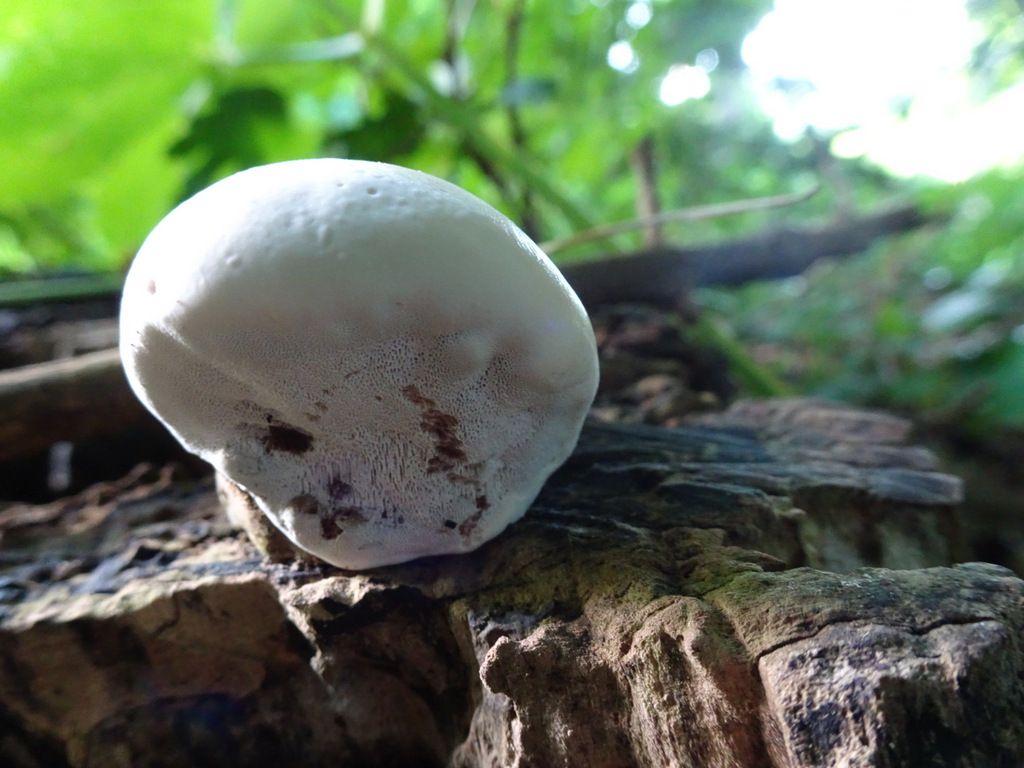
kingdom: Fungi
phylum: Basidiomycota
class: Agaricomycetes
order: Polyporales
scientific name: Polyporales
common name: poresvampordenen
